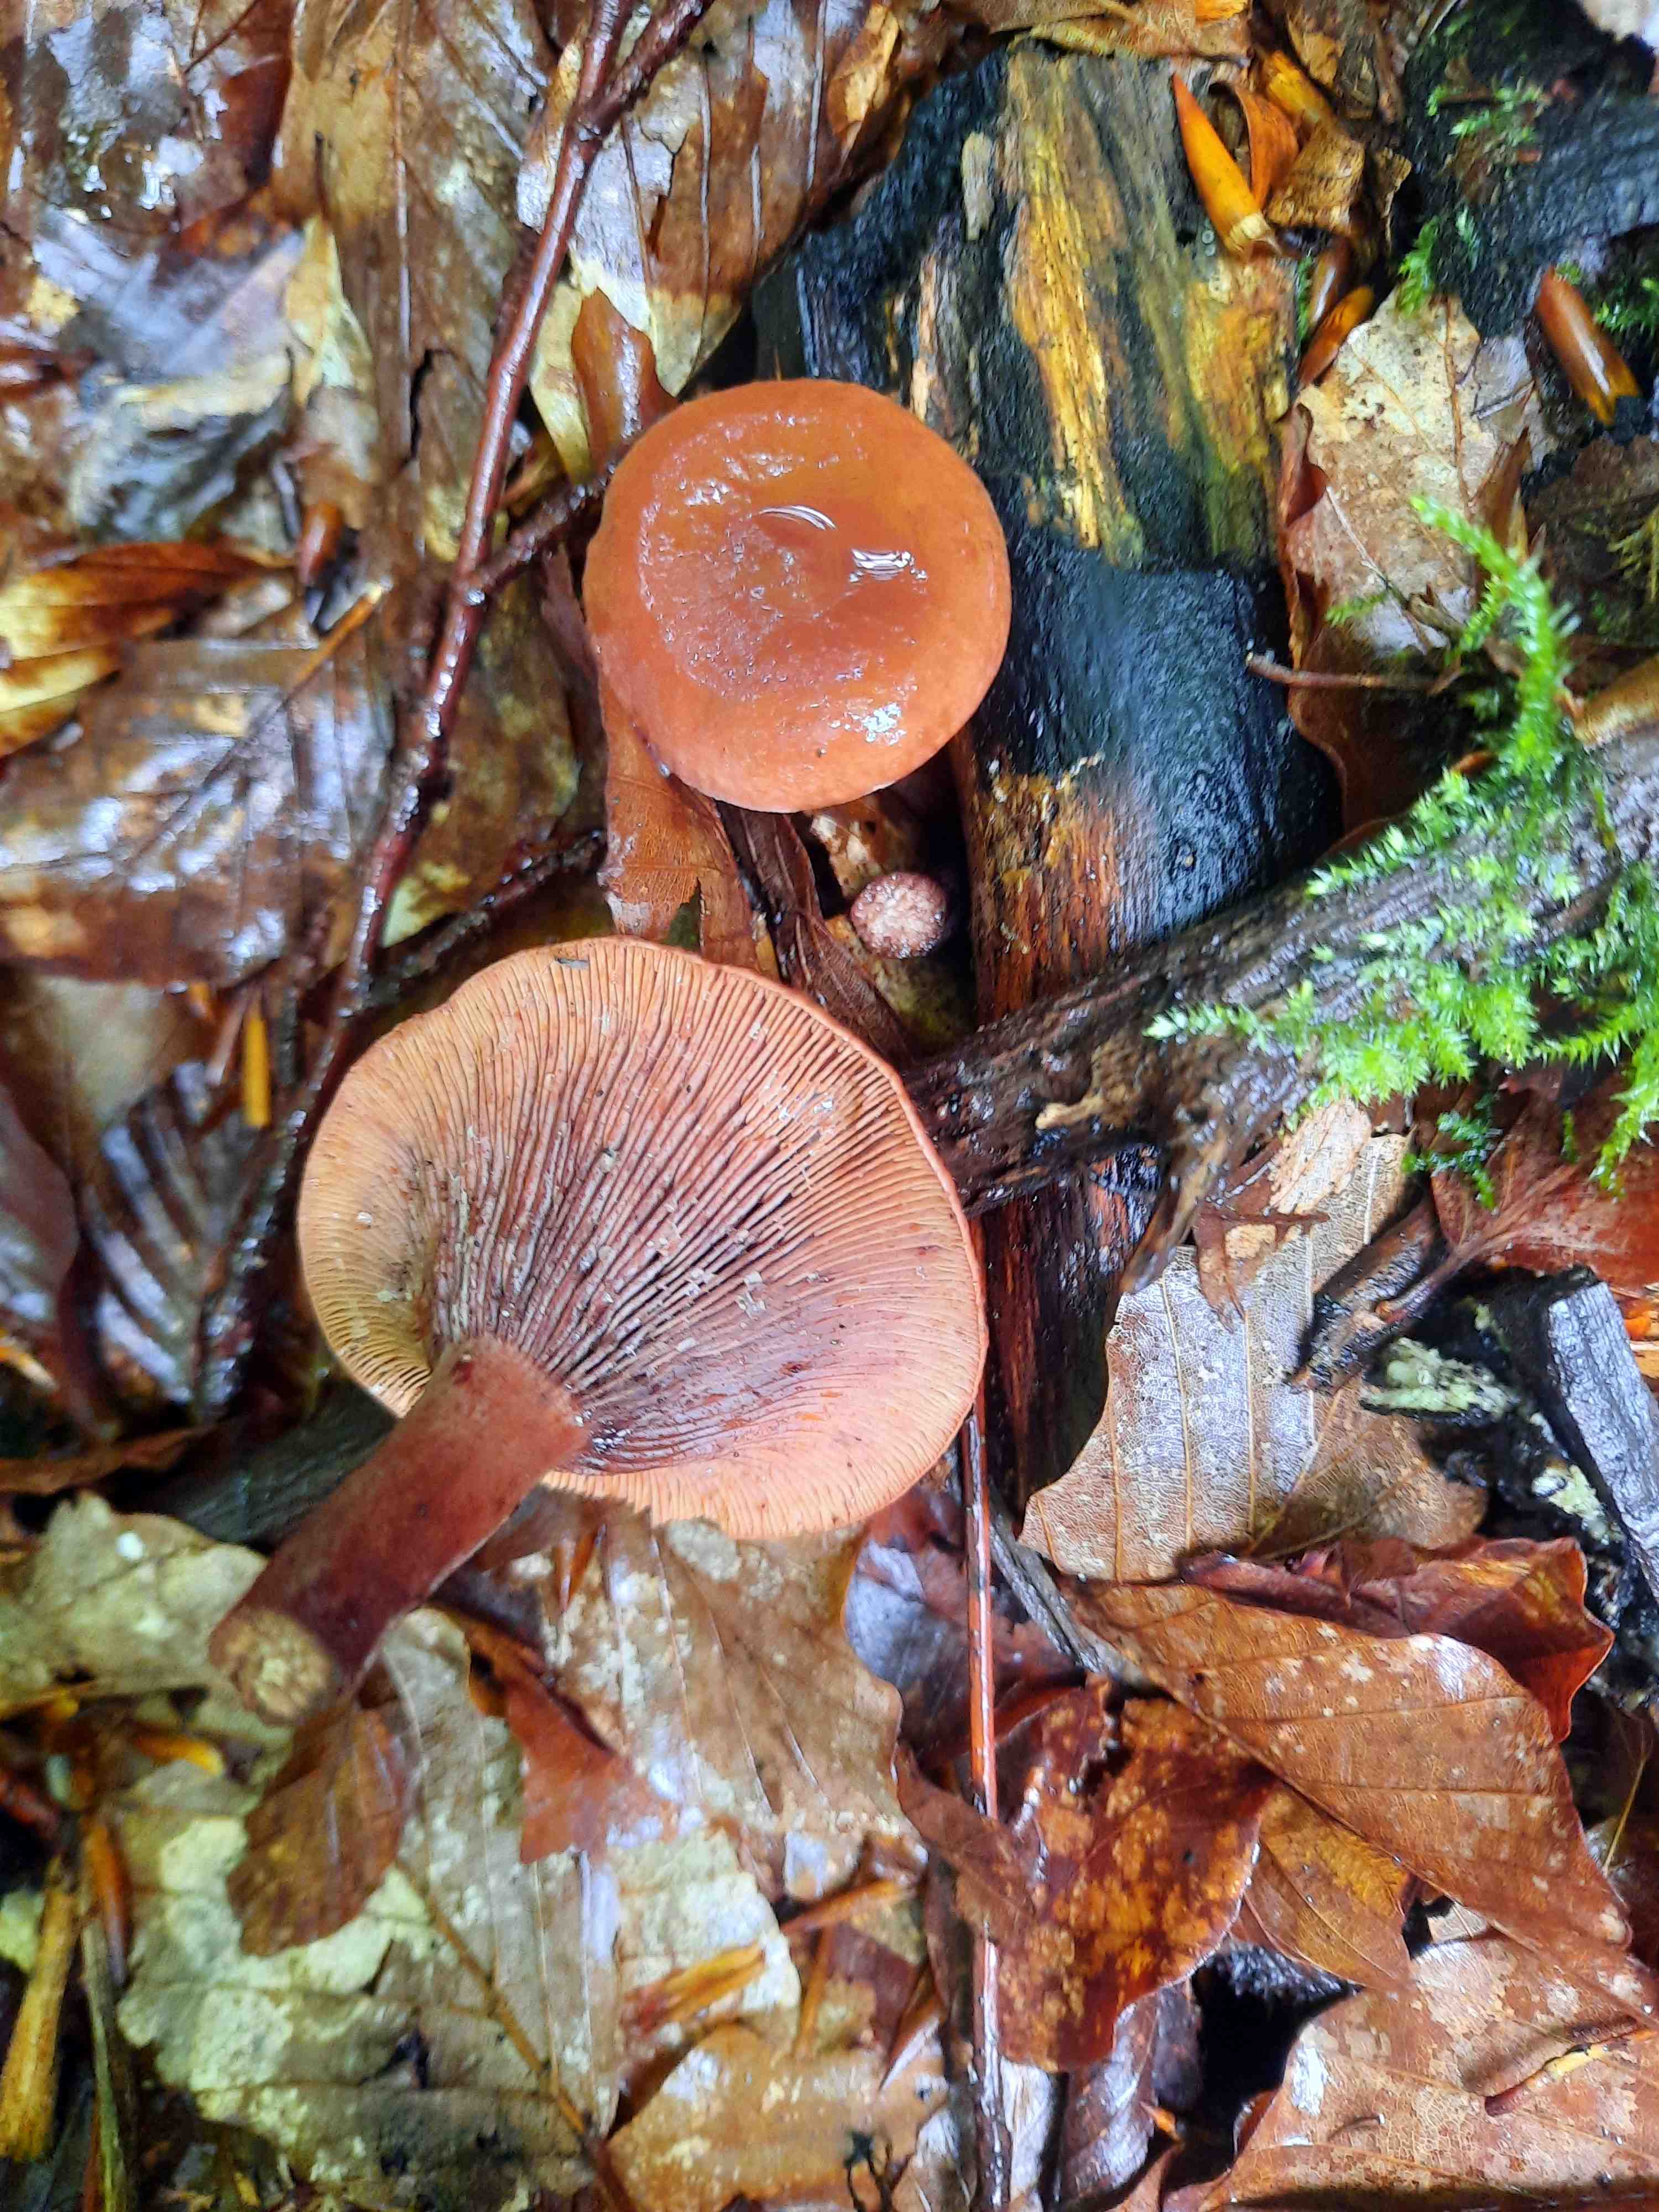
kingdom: Fungi
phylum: Basidiomycota
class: Agaricomycetes
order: Russulales
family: Russulaceae
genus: Lactarius
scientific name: Lactarius camphoratus
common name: kamfer-mælkehat
